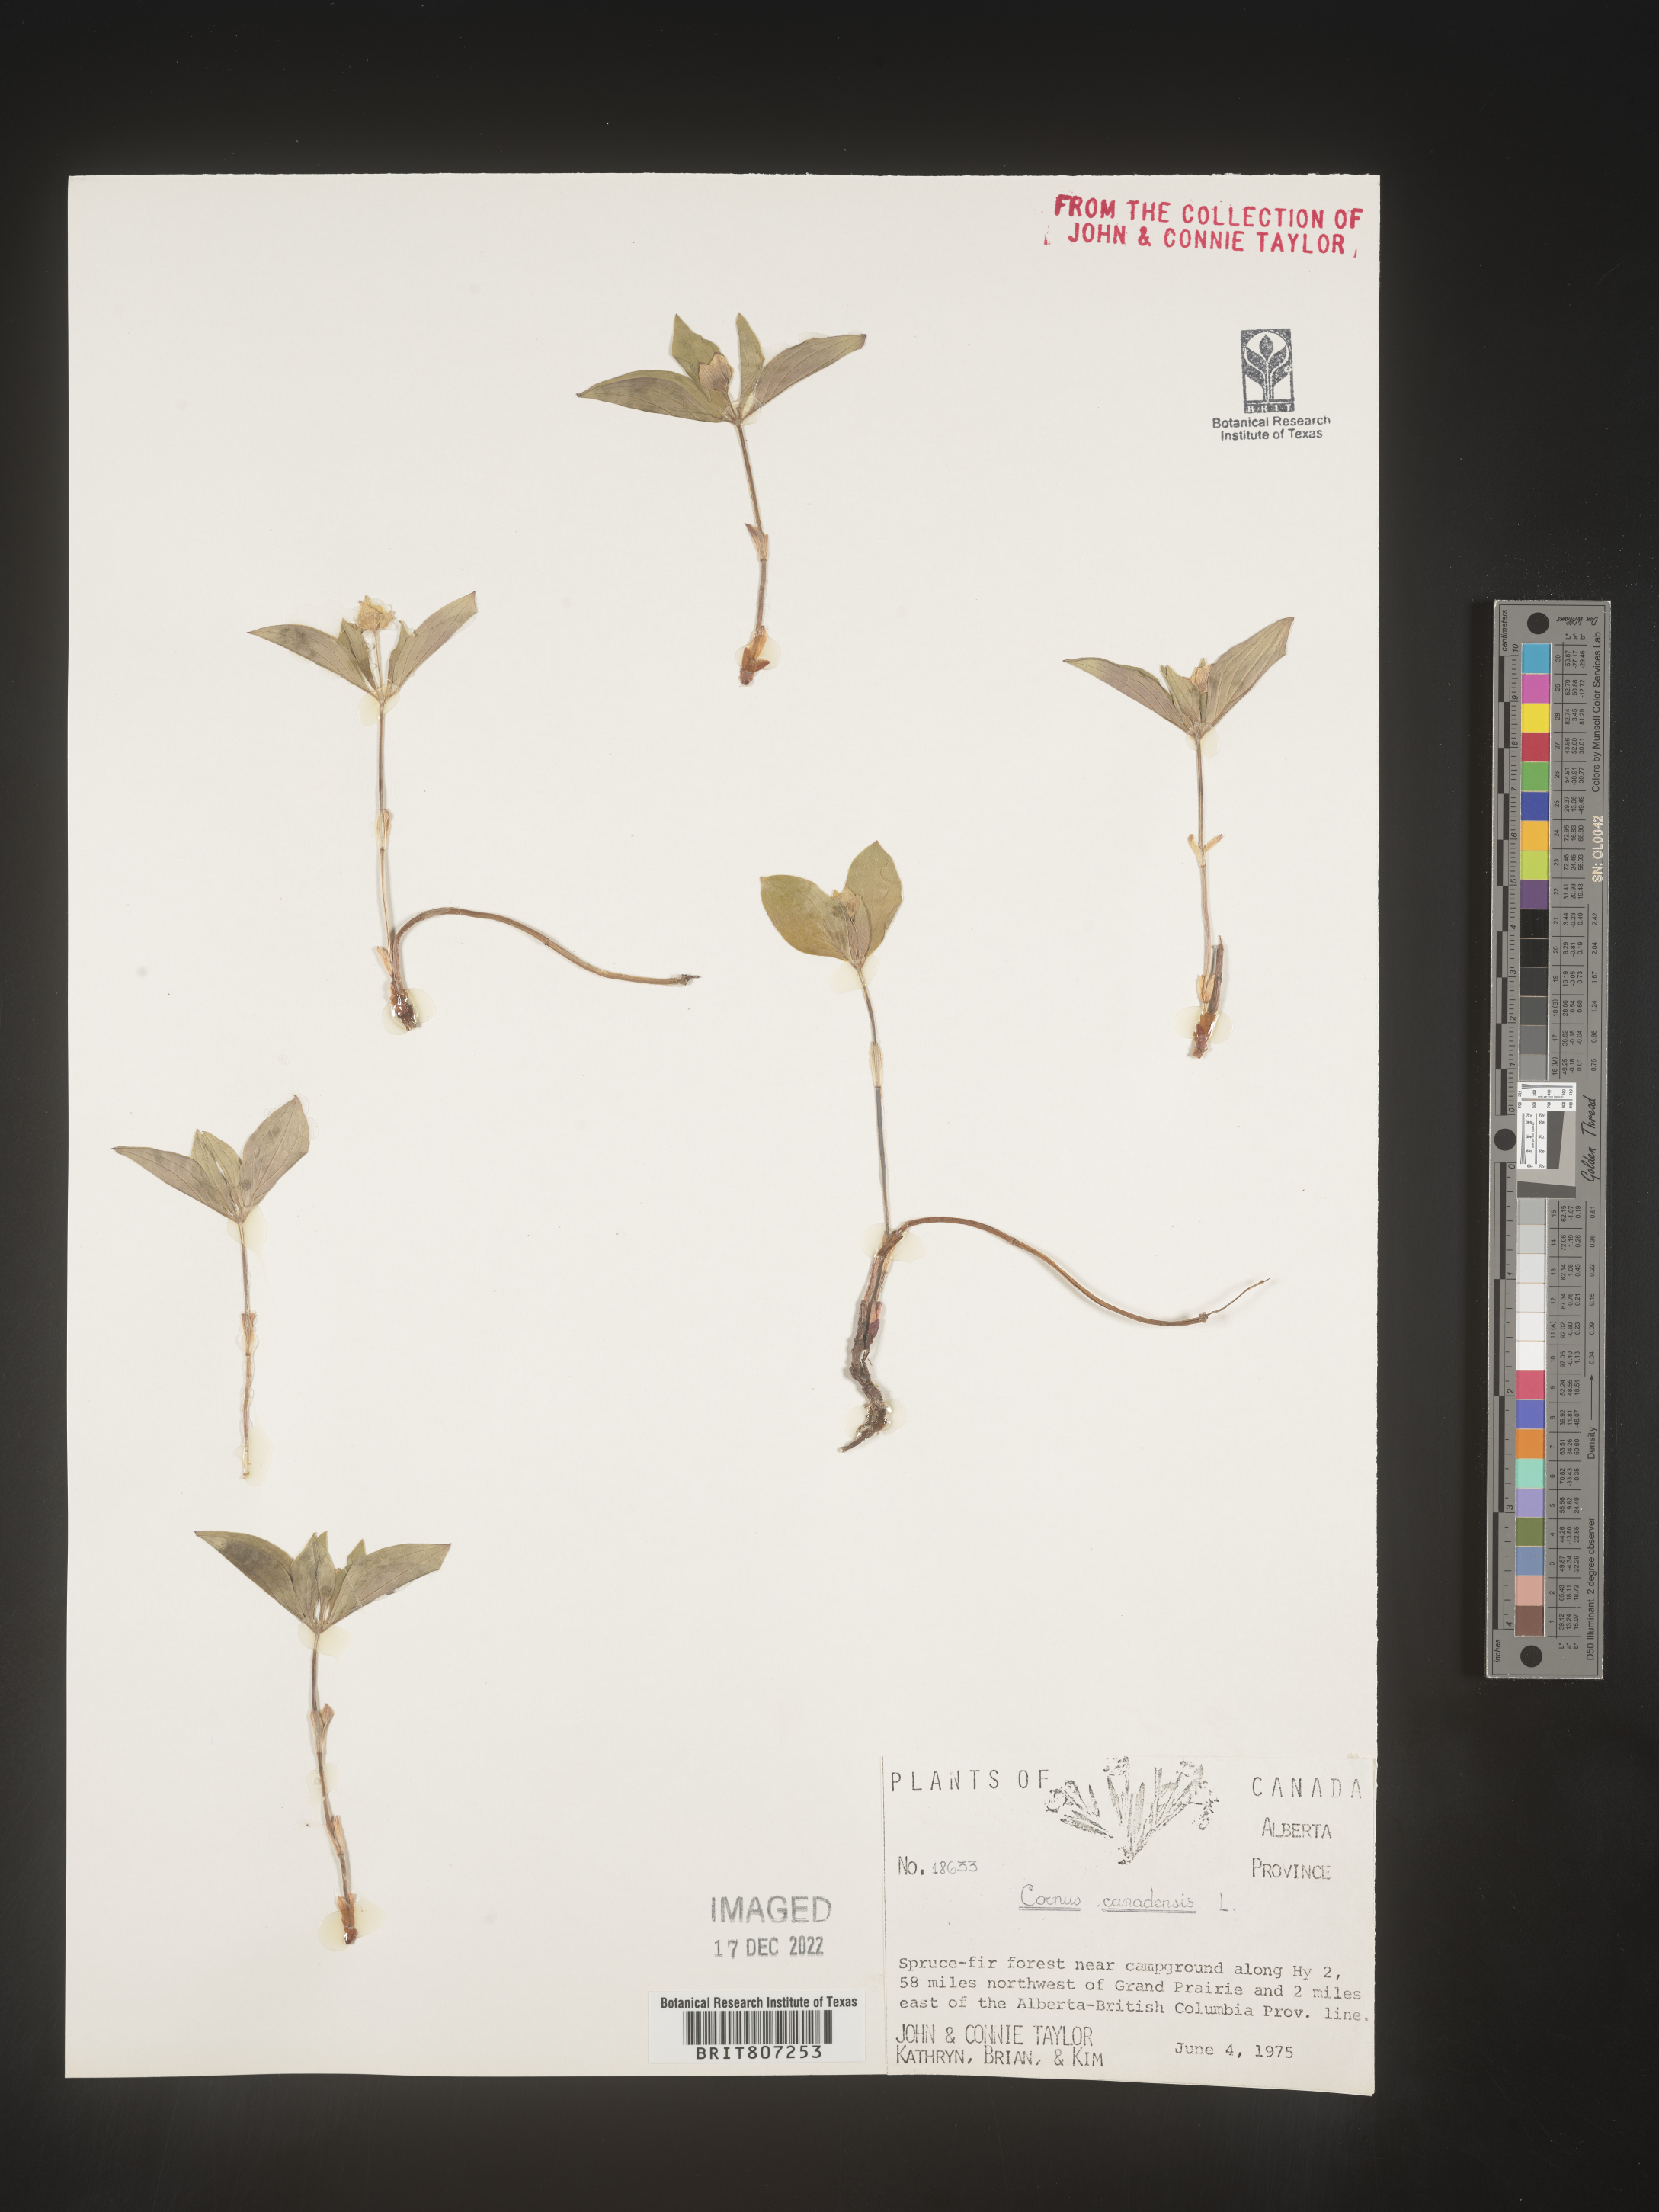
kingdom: Plantae
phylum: Tracheophyta
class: Magnoliopsida
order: Cornales
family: Cornaceae
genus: Cornus
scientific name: Cornus canadensis
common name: Creeping dogwood
